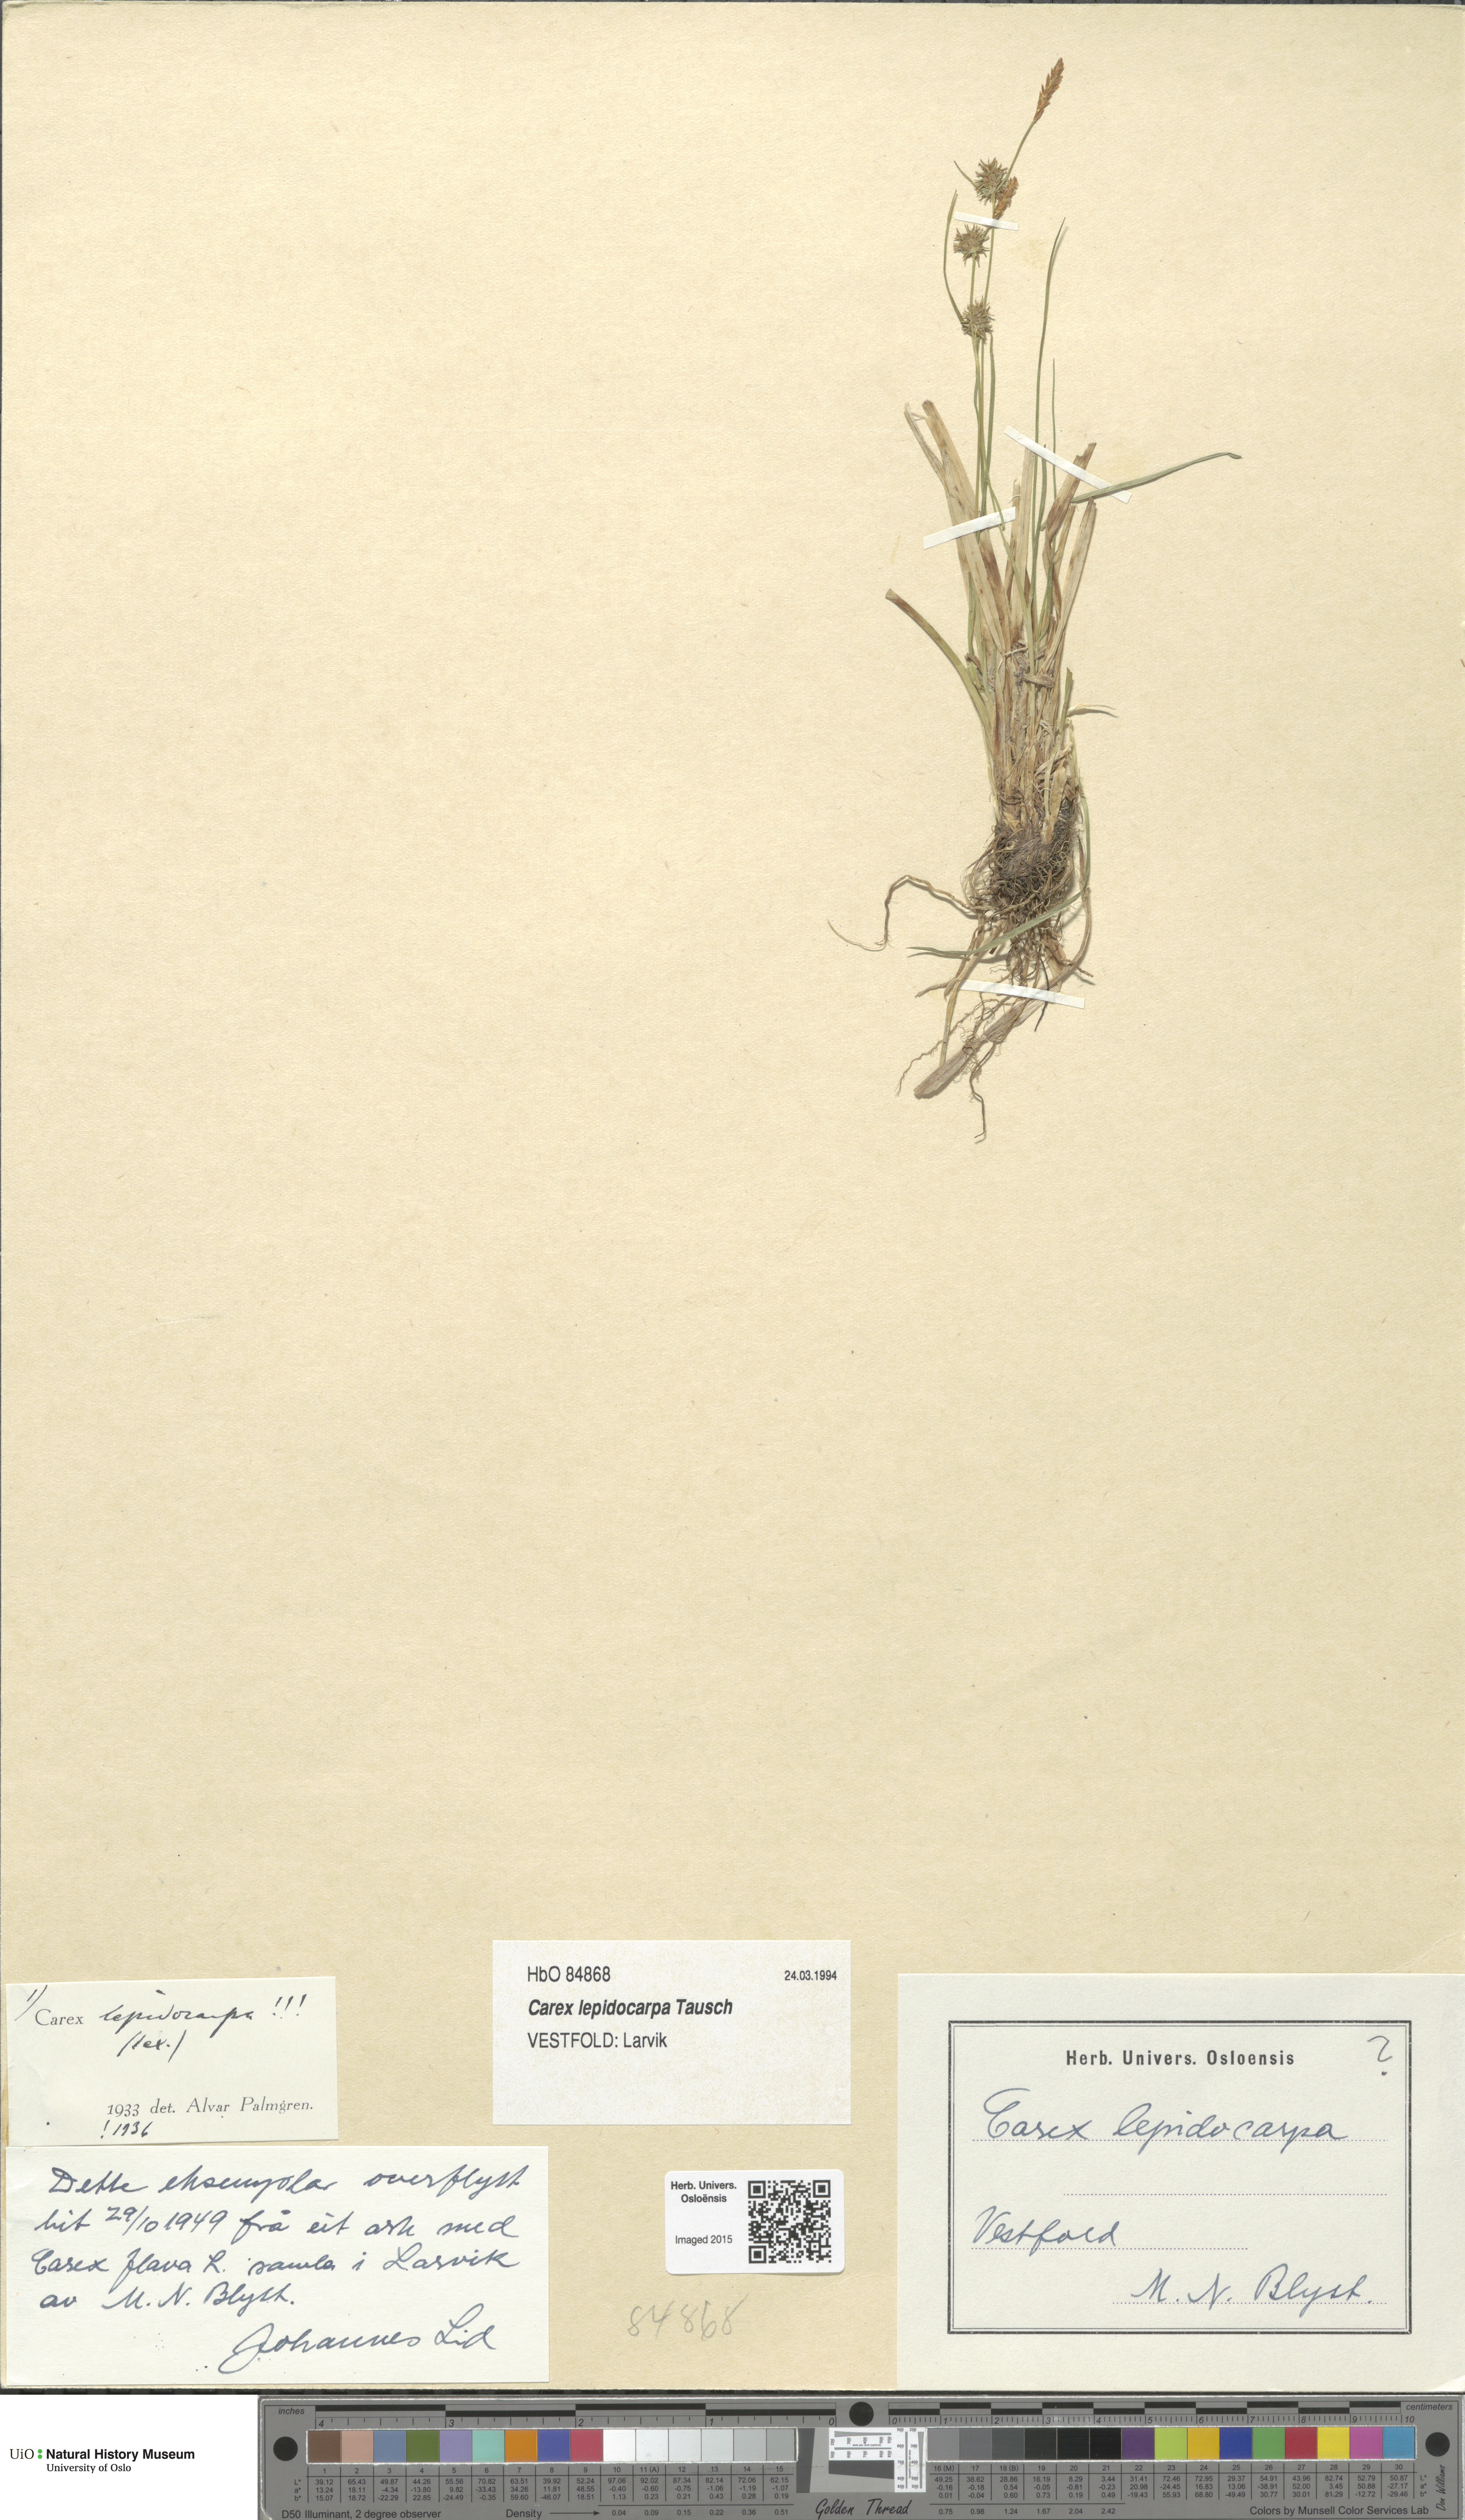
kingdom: Plantae
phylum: Tracheophyta
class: Liliopsida
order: Poales
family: Cyperaceae
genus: Carex
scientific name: Carex lepidocarpa
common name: Long-stalked yellow-sedge
